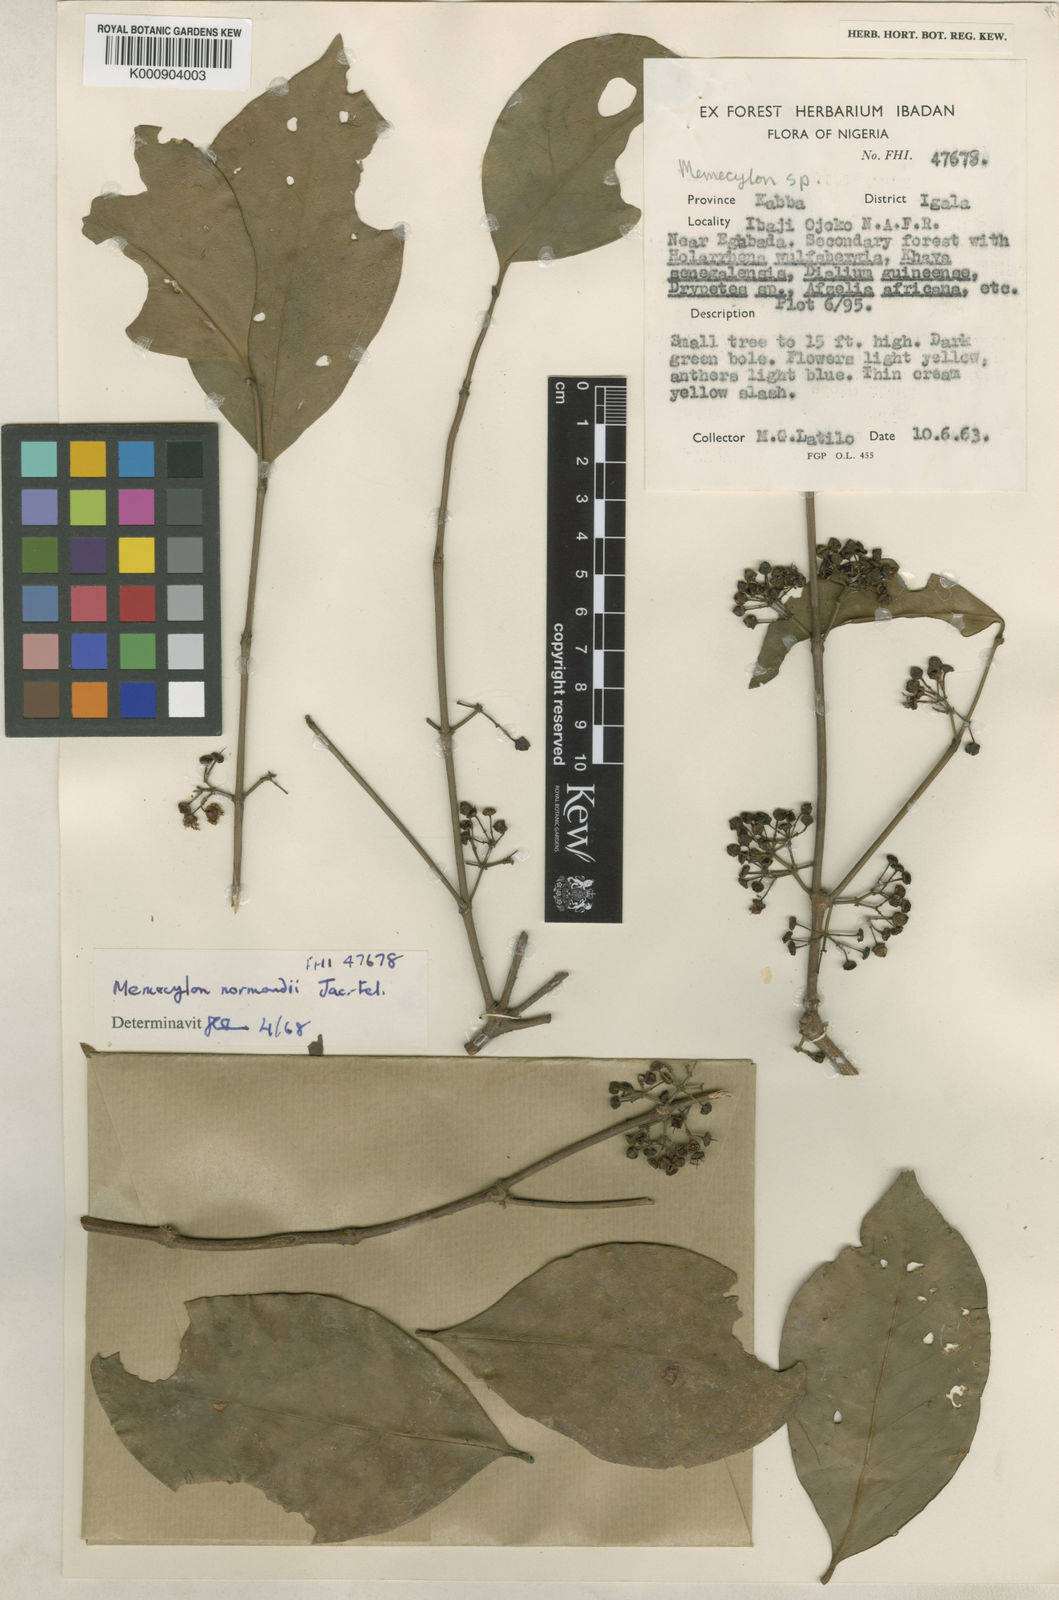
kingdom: Plantae
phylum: Tracheophyta
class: Magnoliopsida
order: Myrtales
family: Melastomataceae
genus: Memecylon
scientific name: Memecylon
